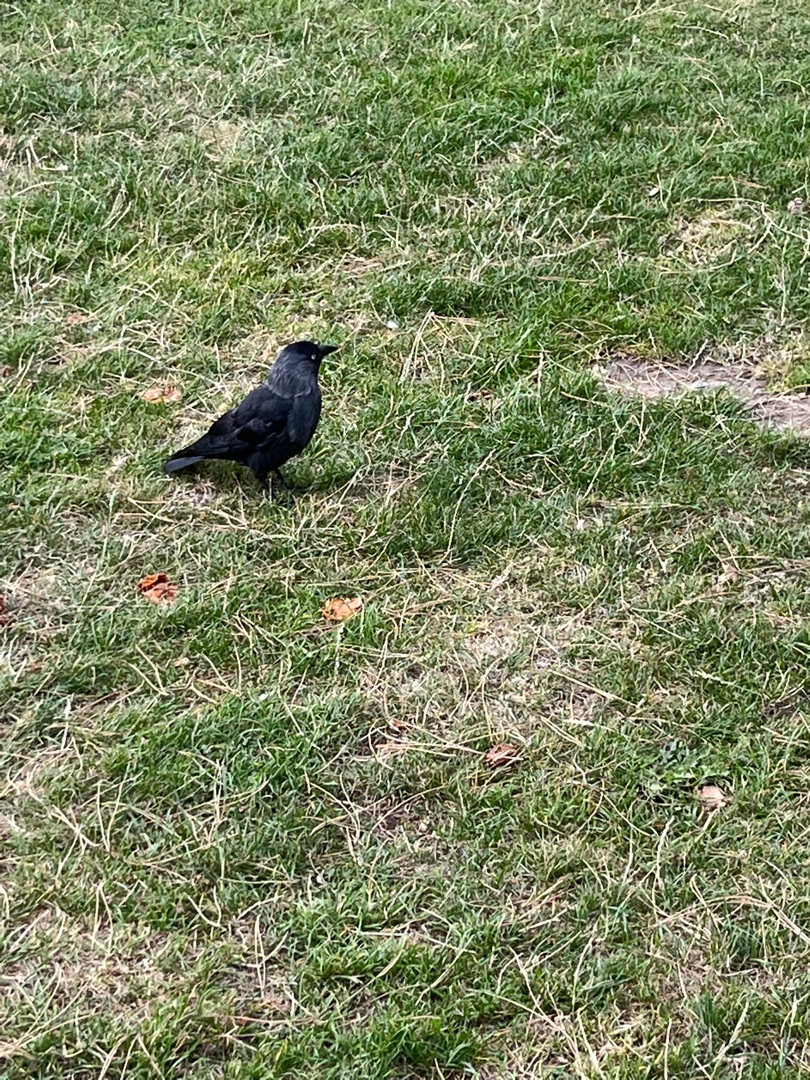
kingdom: Animalia
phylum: Chordata
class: Aves
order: Passeriformes
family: Corvidae
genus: Coloeus
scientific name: Coloeus monedula
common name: Allike
